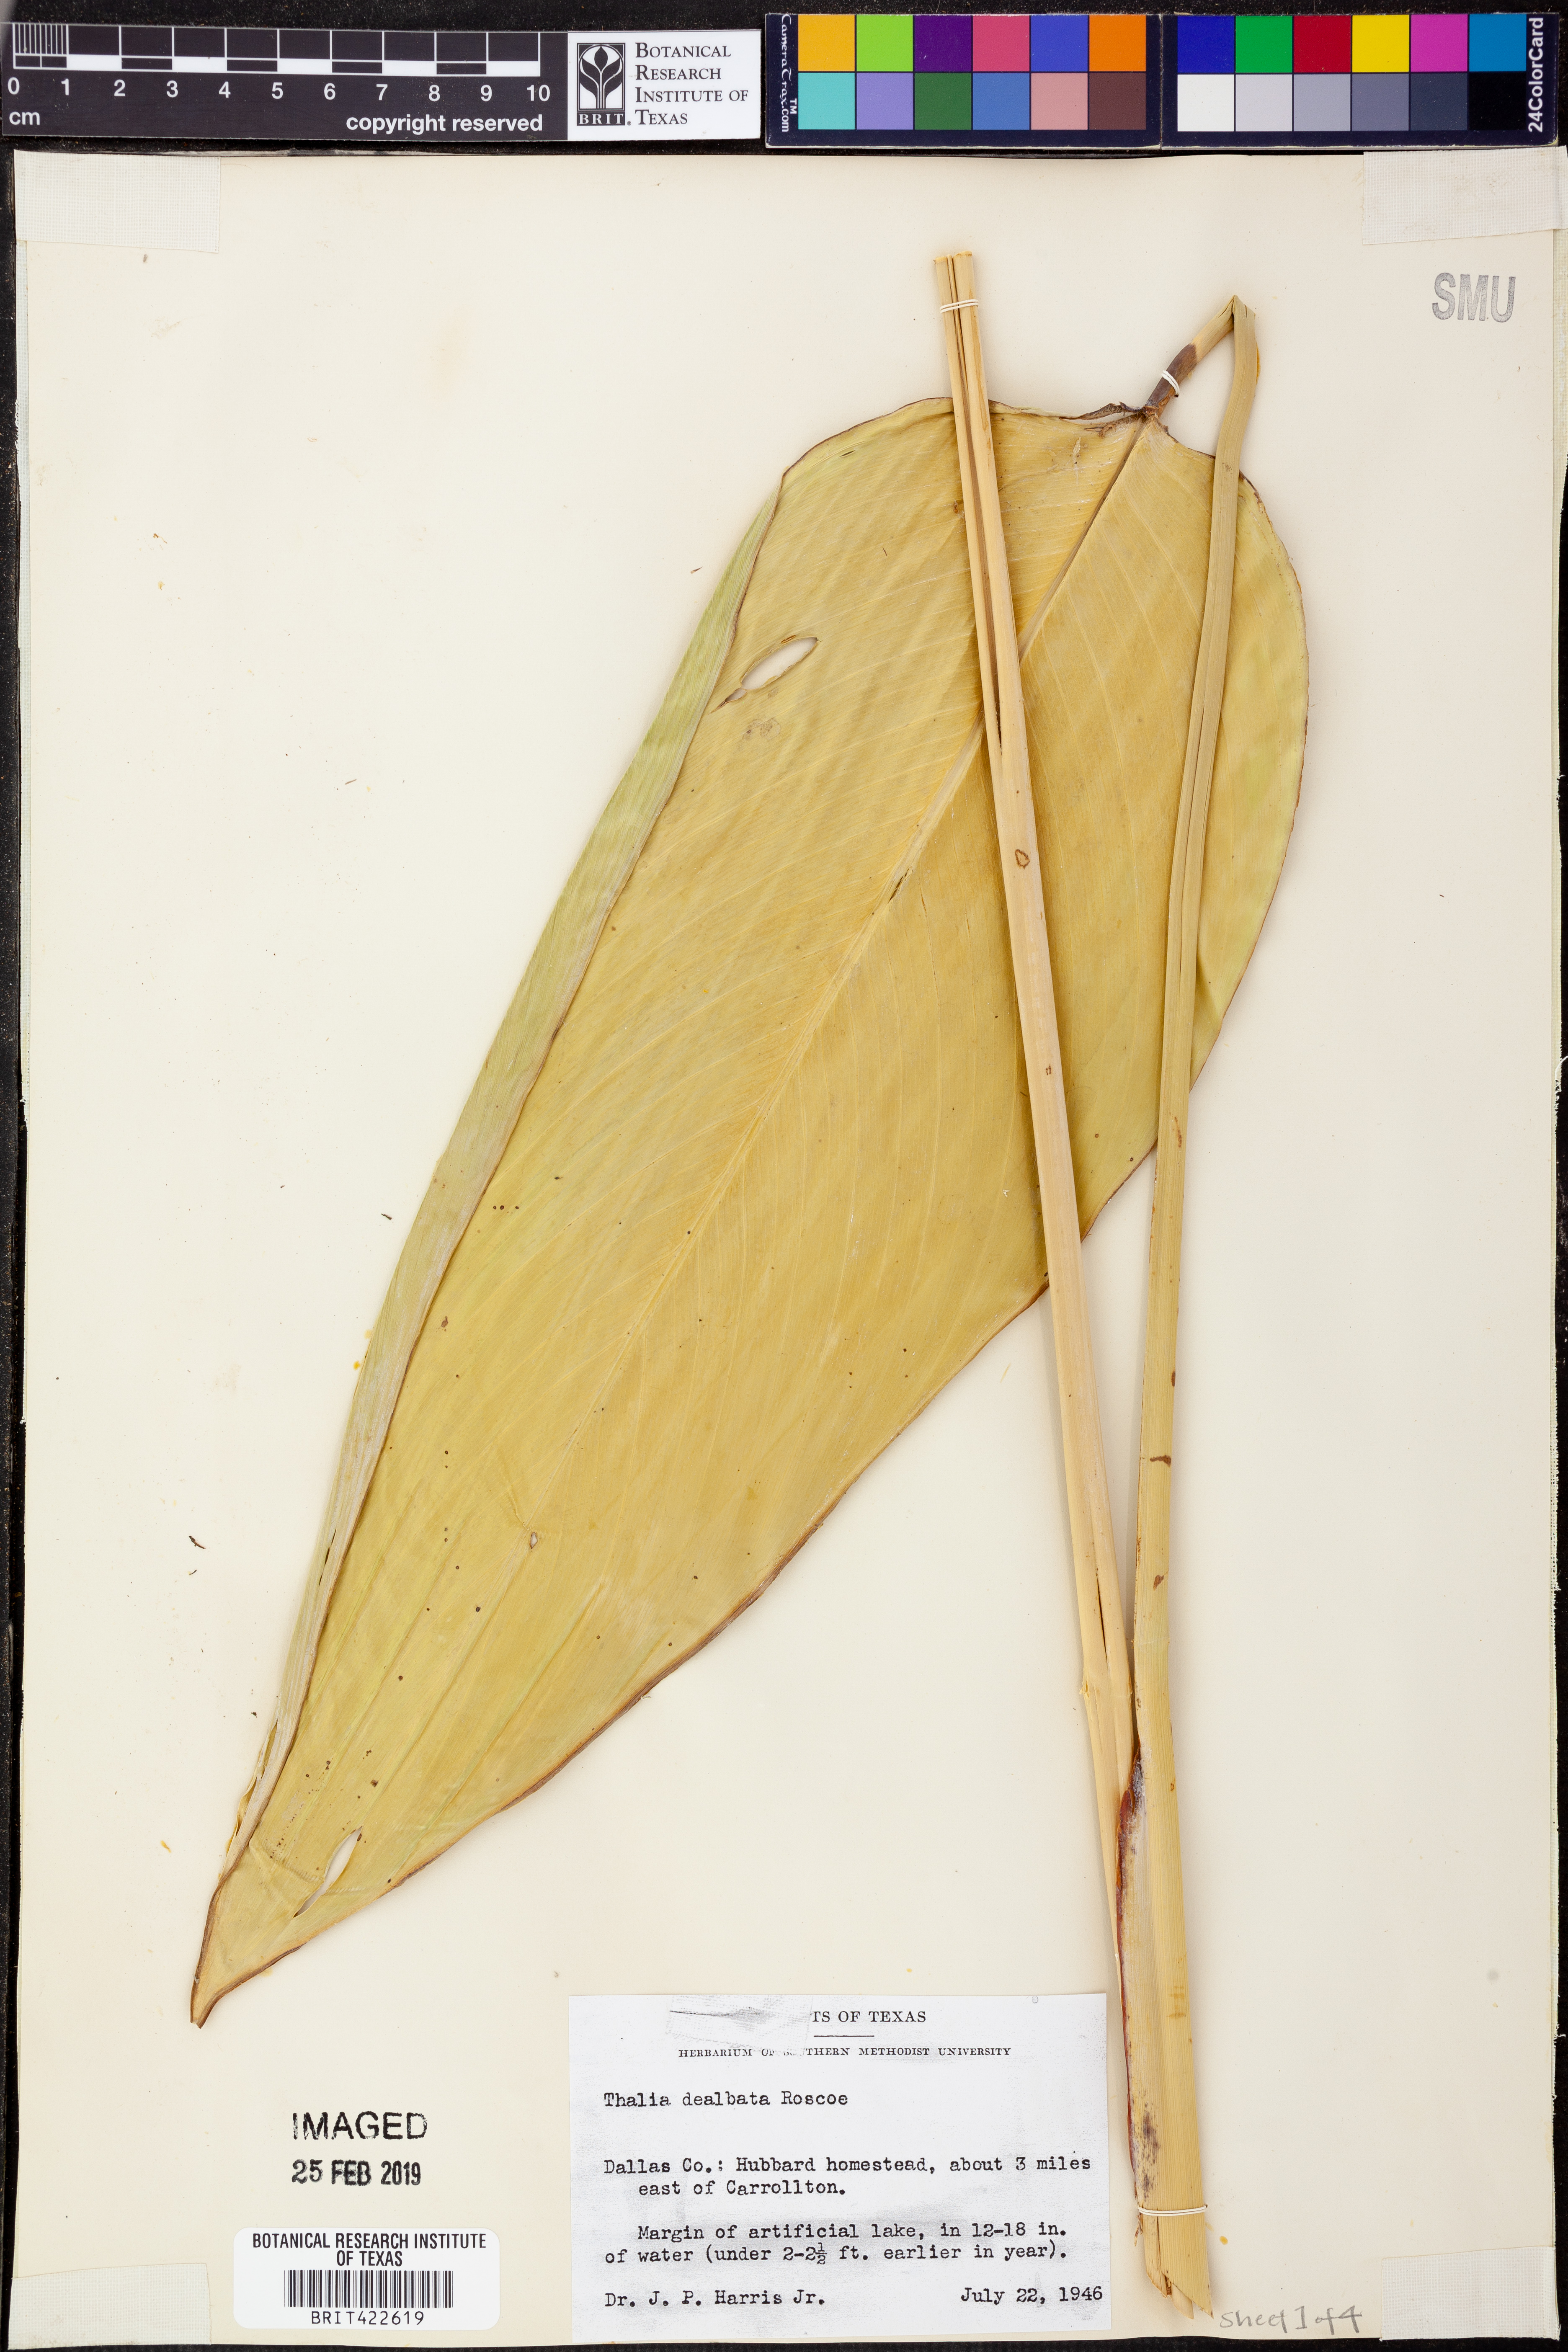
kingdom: Plantae
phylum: Tracheophyta
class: Liliopsida
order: Zingiberales
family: Marantaceae
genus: Thalia
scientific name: Thalia dealbata
